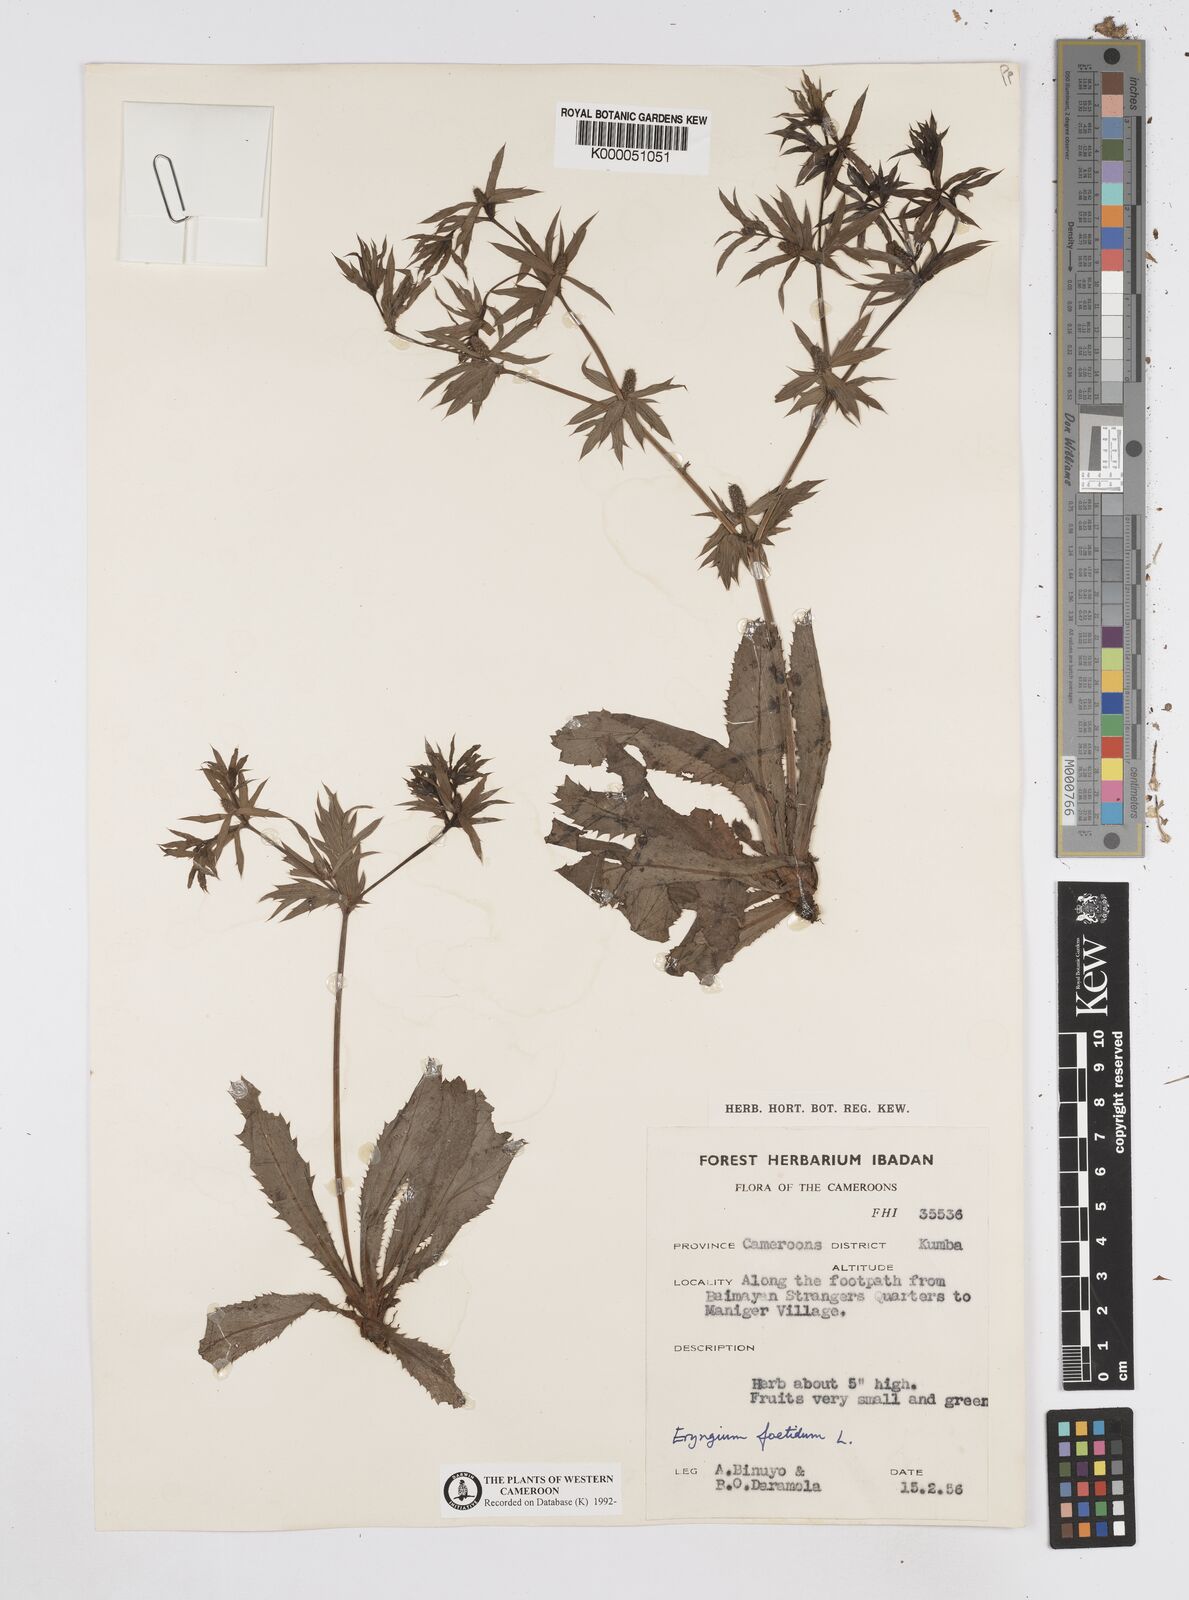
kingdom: Plantae
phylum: Tracheophyta
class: Magnoliopsida
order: Apiales
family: Apiaceae
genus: Eryngium
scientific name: Eryngium foetidum
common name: Fitweed
